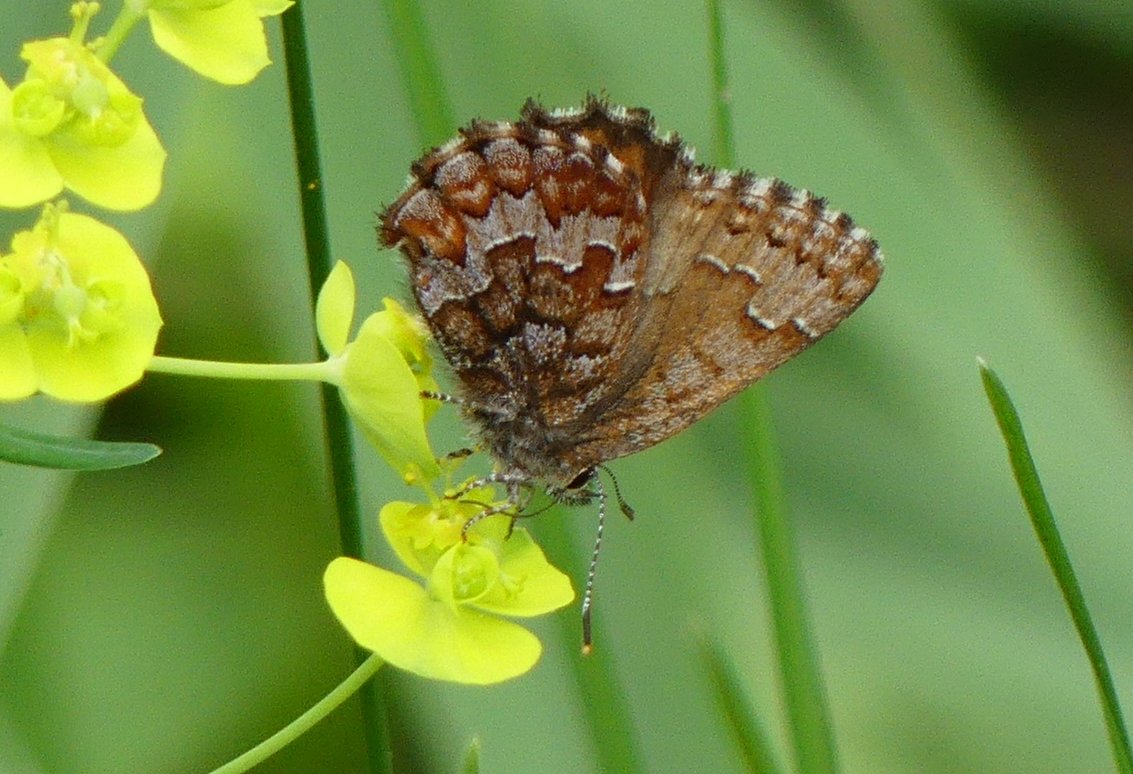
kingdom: Animalia
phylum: Arthropoda
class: Insecta
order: Lepidoptera
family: Lycaenidae
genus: Incisalia
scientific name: Incisalia niphon
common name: Eastern Pine Elfin
